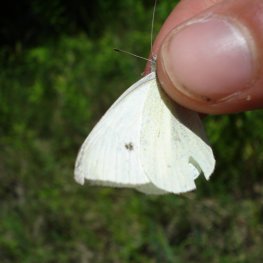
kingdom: Animalia
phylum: Arthropoda
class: Insecta
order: Lepidoptera
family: Pieridae
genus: Pieris
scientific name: Pieris rapae
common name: Cabbage White
